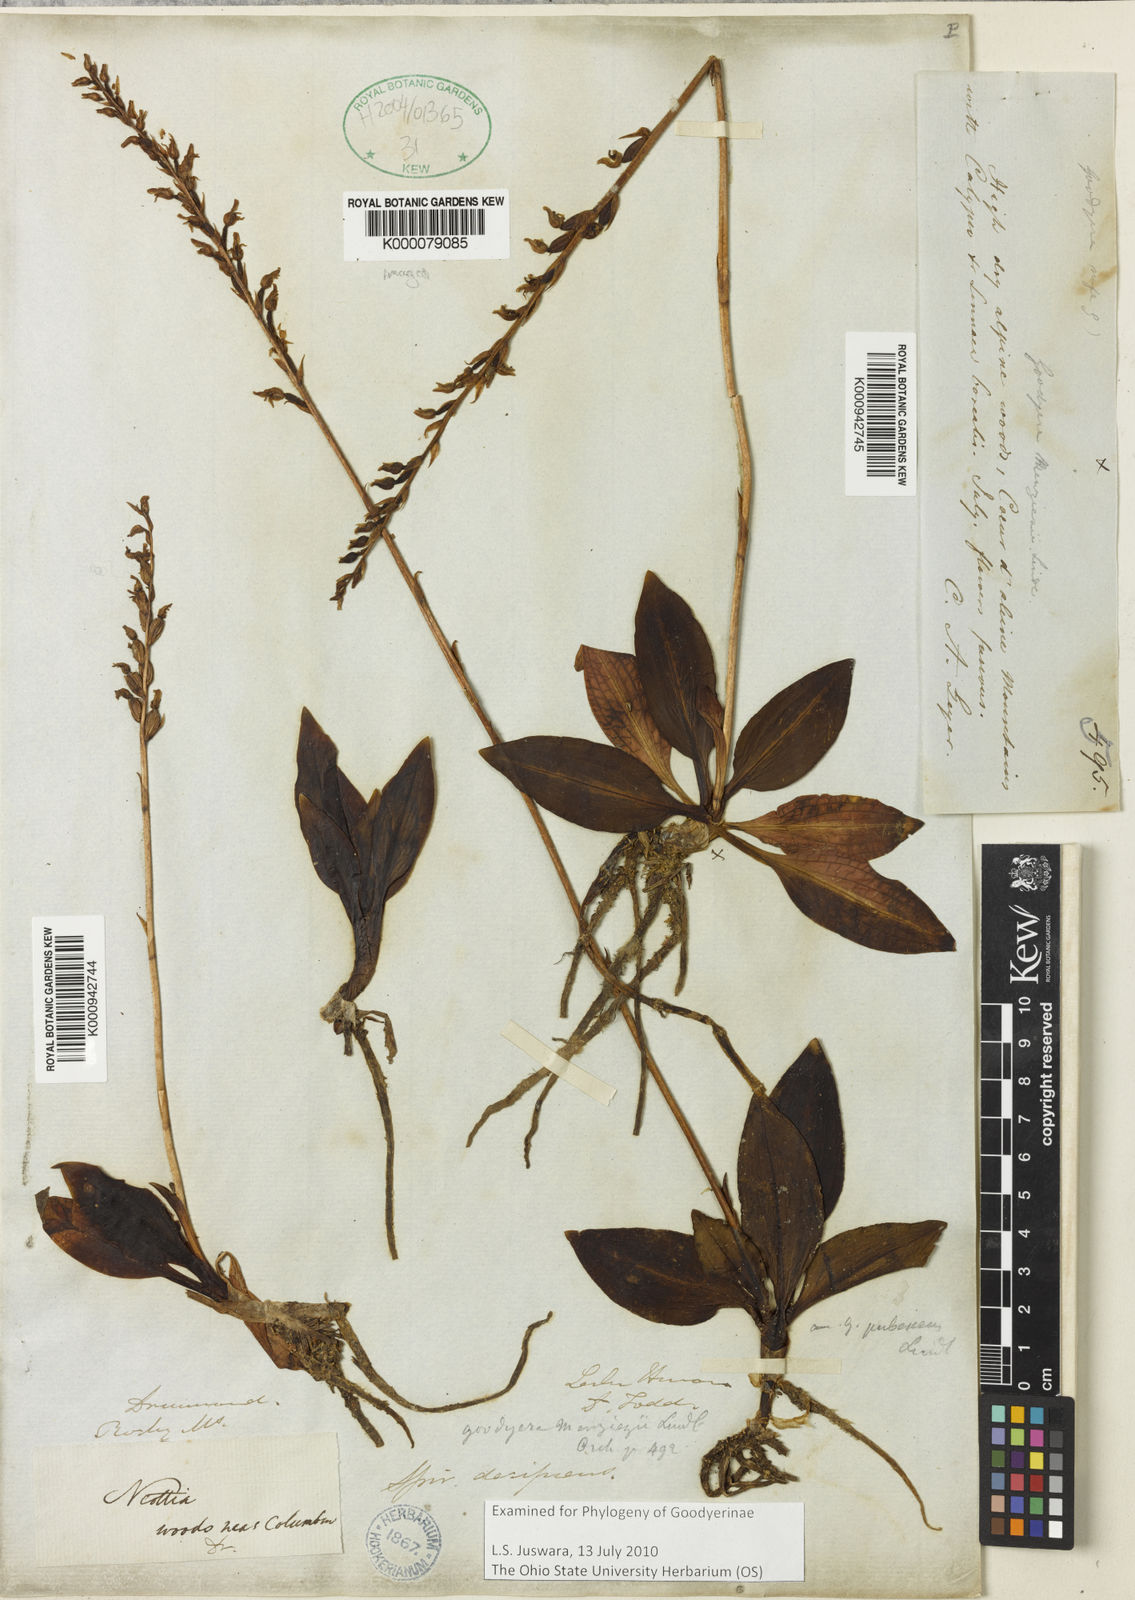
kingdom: Plantae
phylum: Tracheophyta
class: Liliopsida
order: Asparagales
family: Orchidaceae
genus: Goodyera
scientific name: Goodyera oblongifolia
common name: Giant rattlesnake-plantain
